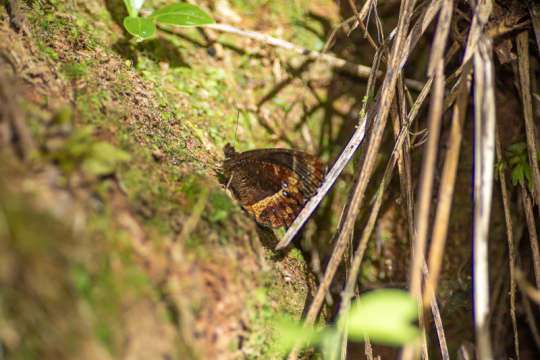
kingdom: Animalia
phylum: Arthropoda
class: Insecta
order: Lepidoptera
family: Nymphalidae
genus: Pedaliodes
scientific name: Pedaliodes phazania
